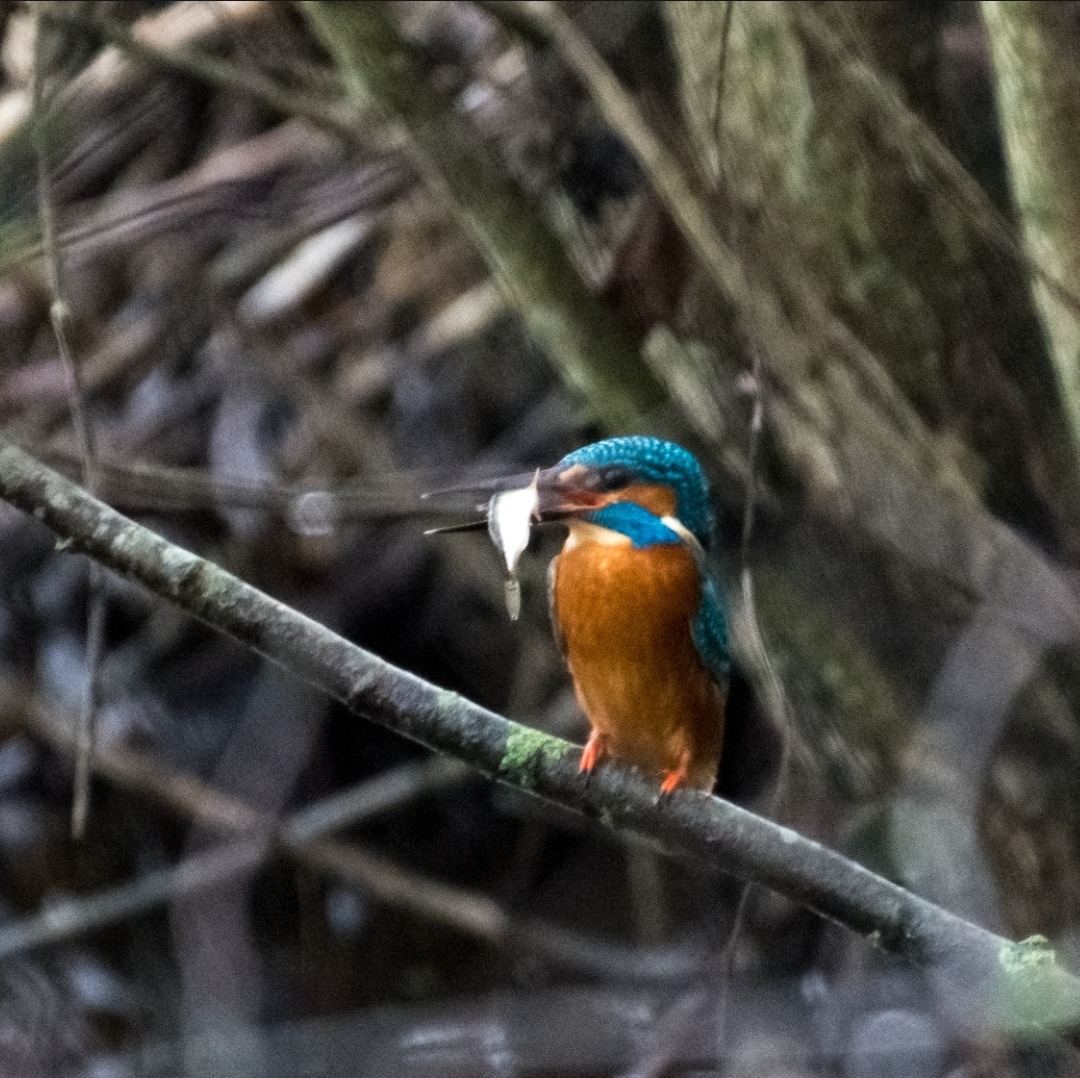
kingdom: Animalia
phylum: Chordata
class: Aves
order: Coraciiformes
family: Alcedinidae
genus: Alcedo
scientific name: Alcedo atthis
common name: Isfugl
